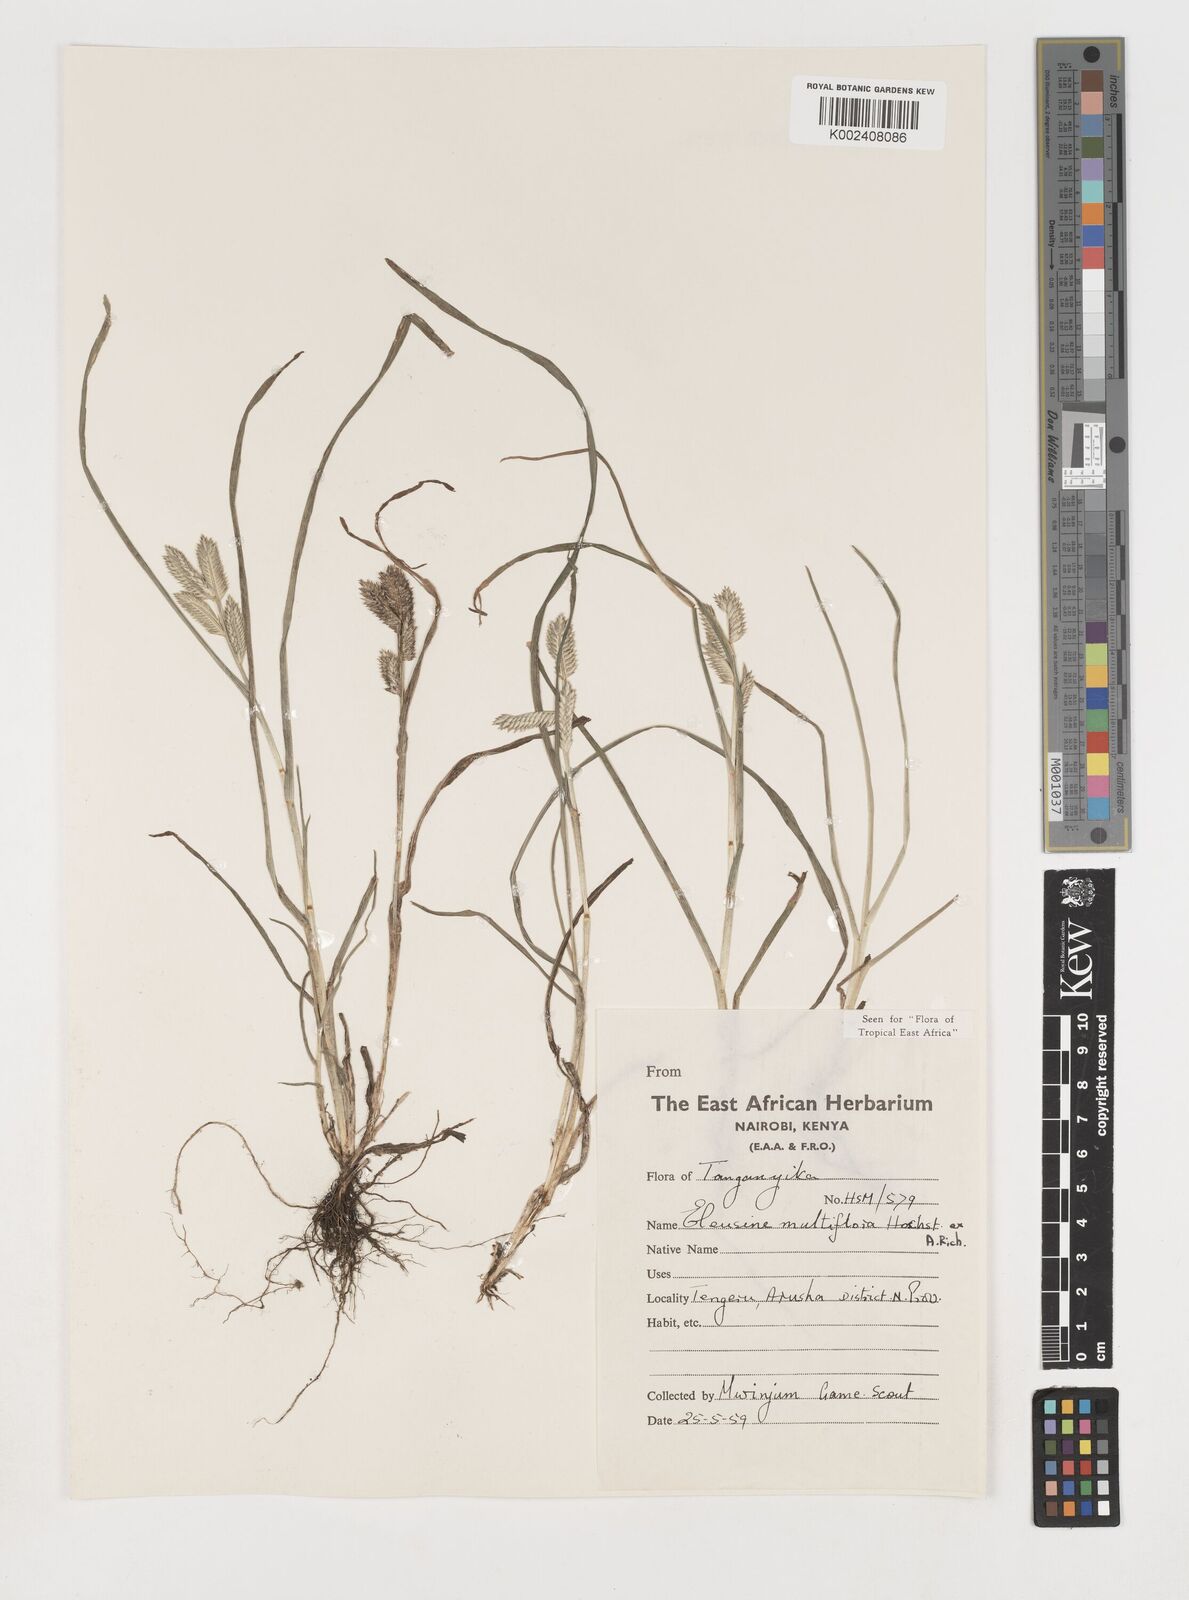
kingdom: Plantae
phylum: Tracheophyta
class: Liliopsida
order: Poales
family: Poaceae
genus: Eleusine
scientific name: Eleusine multiflora
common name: Fat-spiked yard-grass
